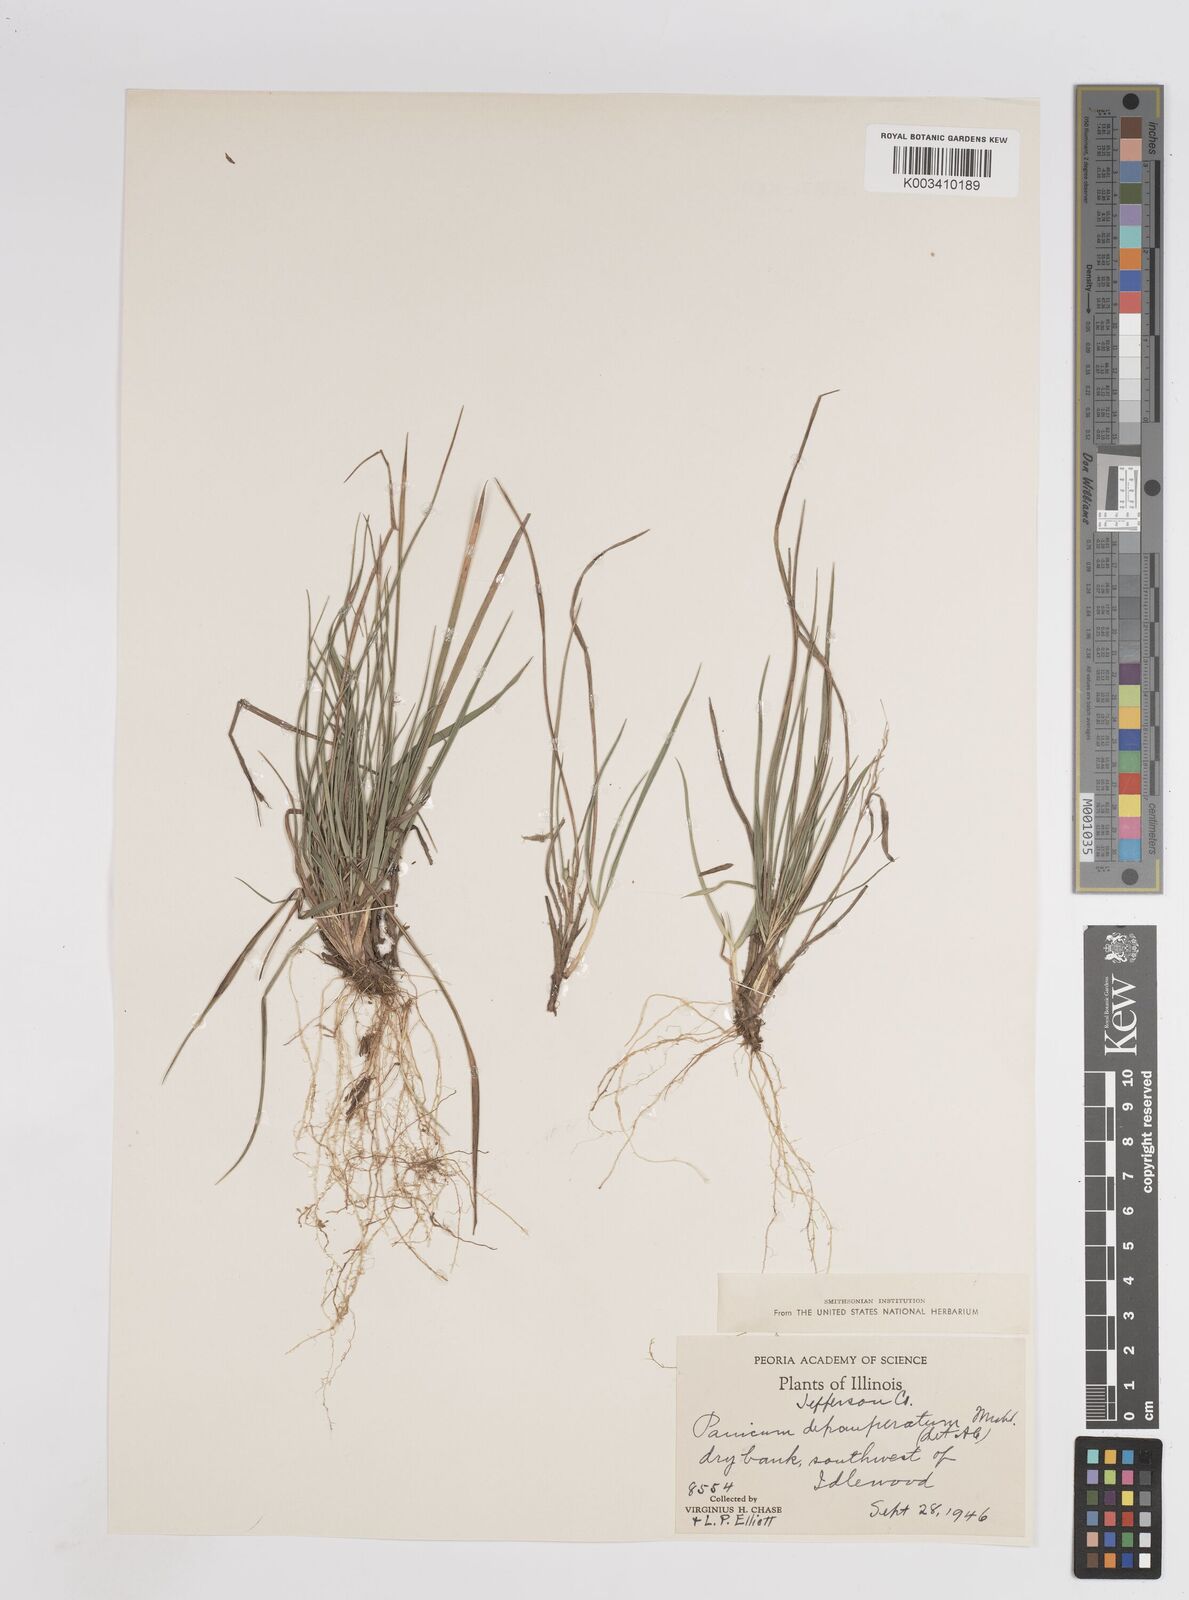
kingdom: Plantae
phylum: Tracheophyta
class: Liliopsida
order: Poales
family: Poaceae
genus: Dichanthelium
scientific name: Dichanthelium depauperatum
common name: Depauperate panicgrass
